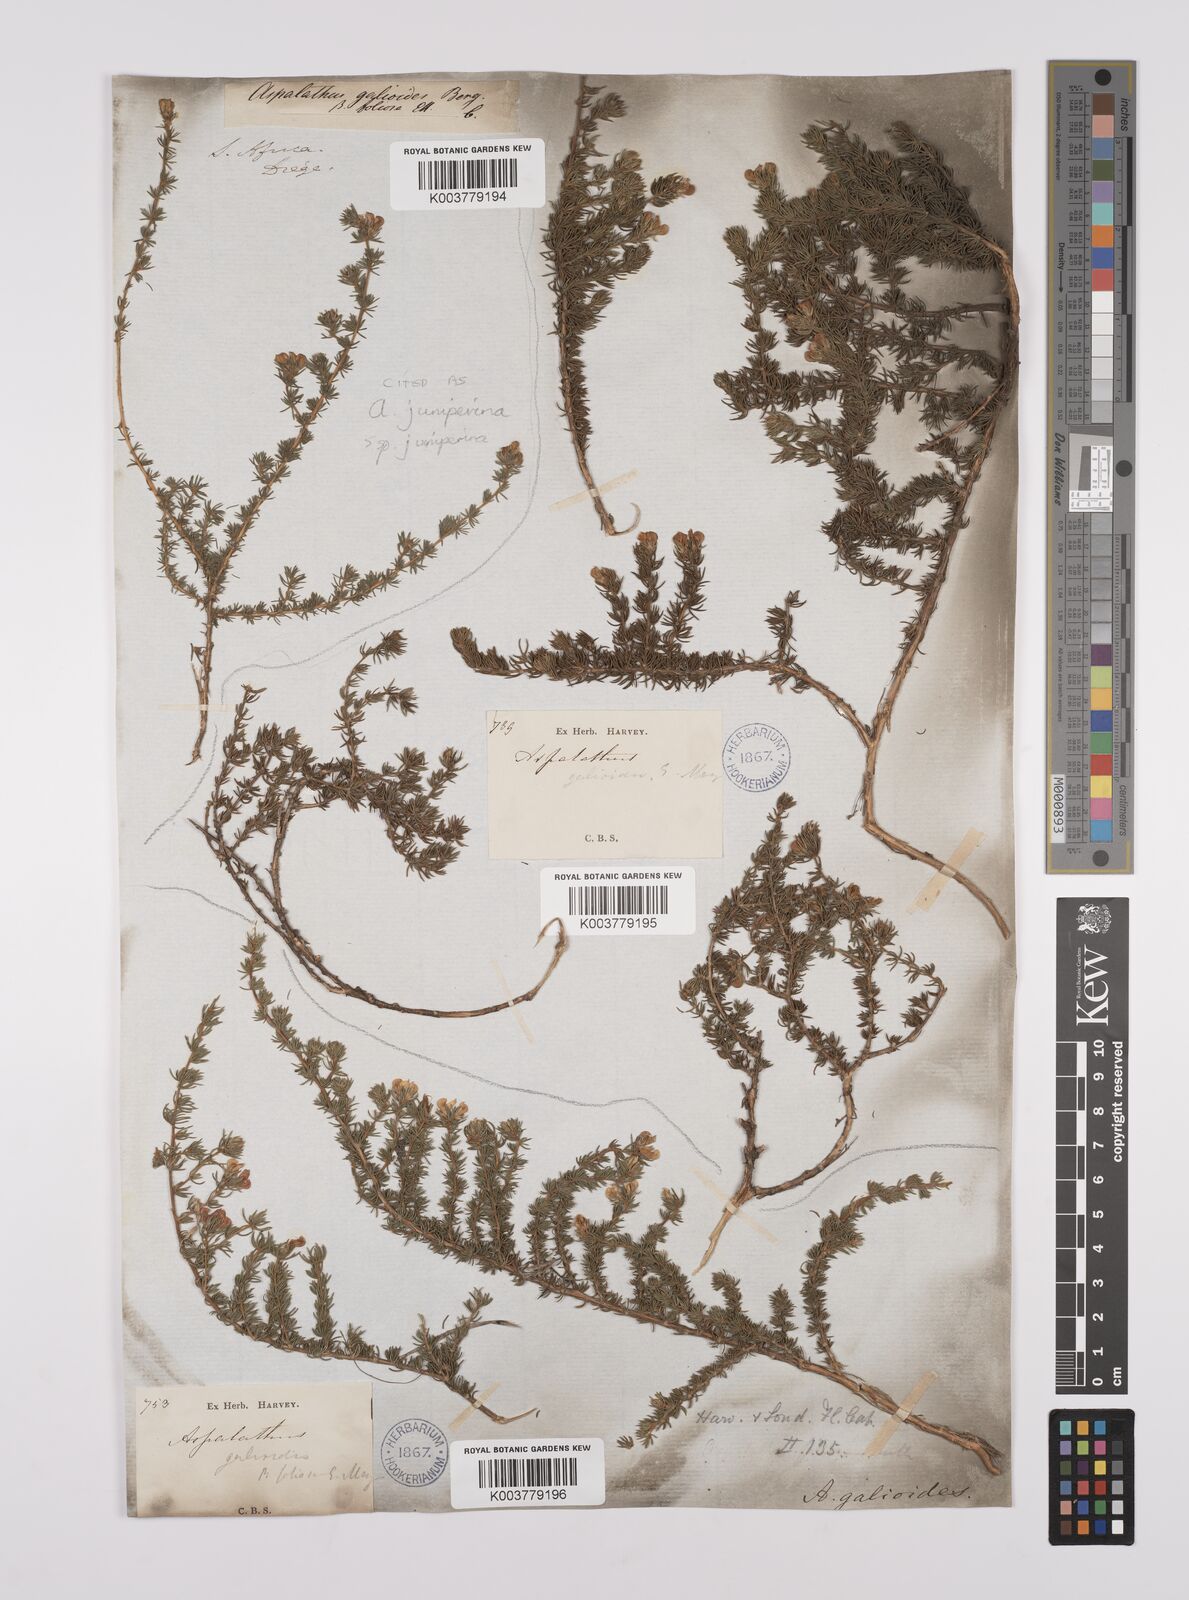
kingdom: Plantae
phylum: Tracheophyta
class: Magnoliopsida
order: Fabales
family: Fabaceae
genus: Aspalathus
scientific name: Aspalathus juniperina
